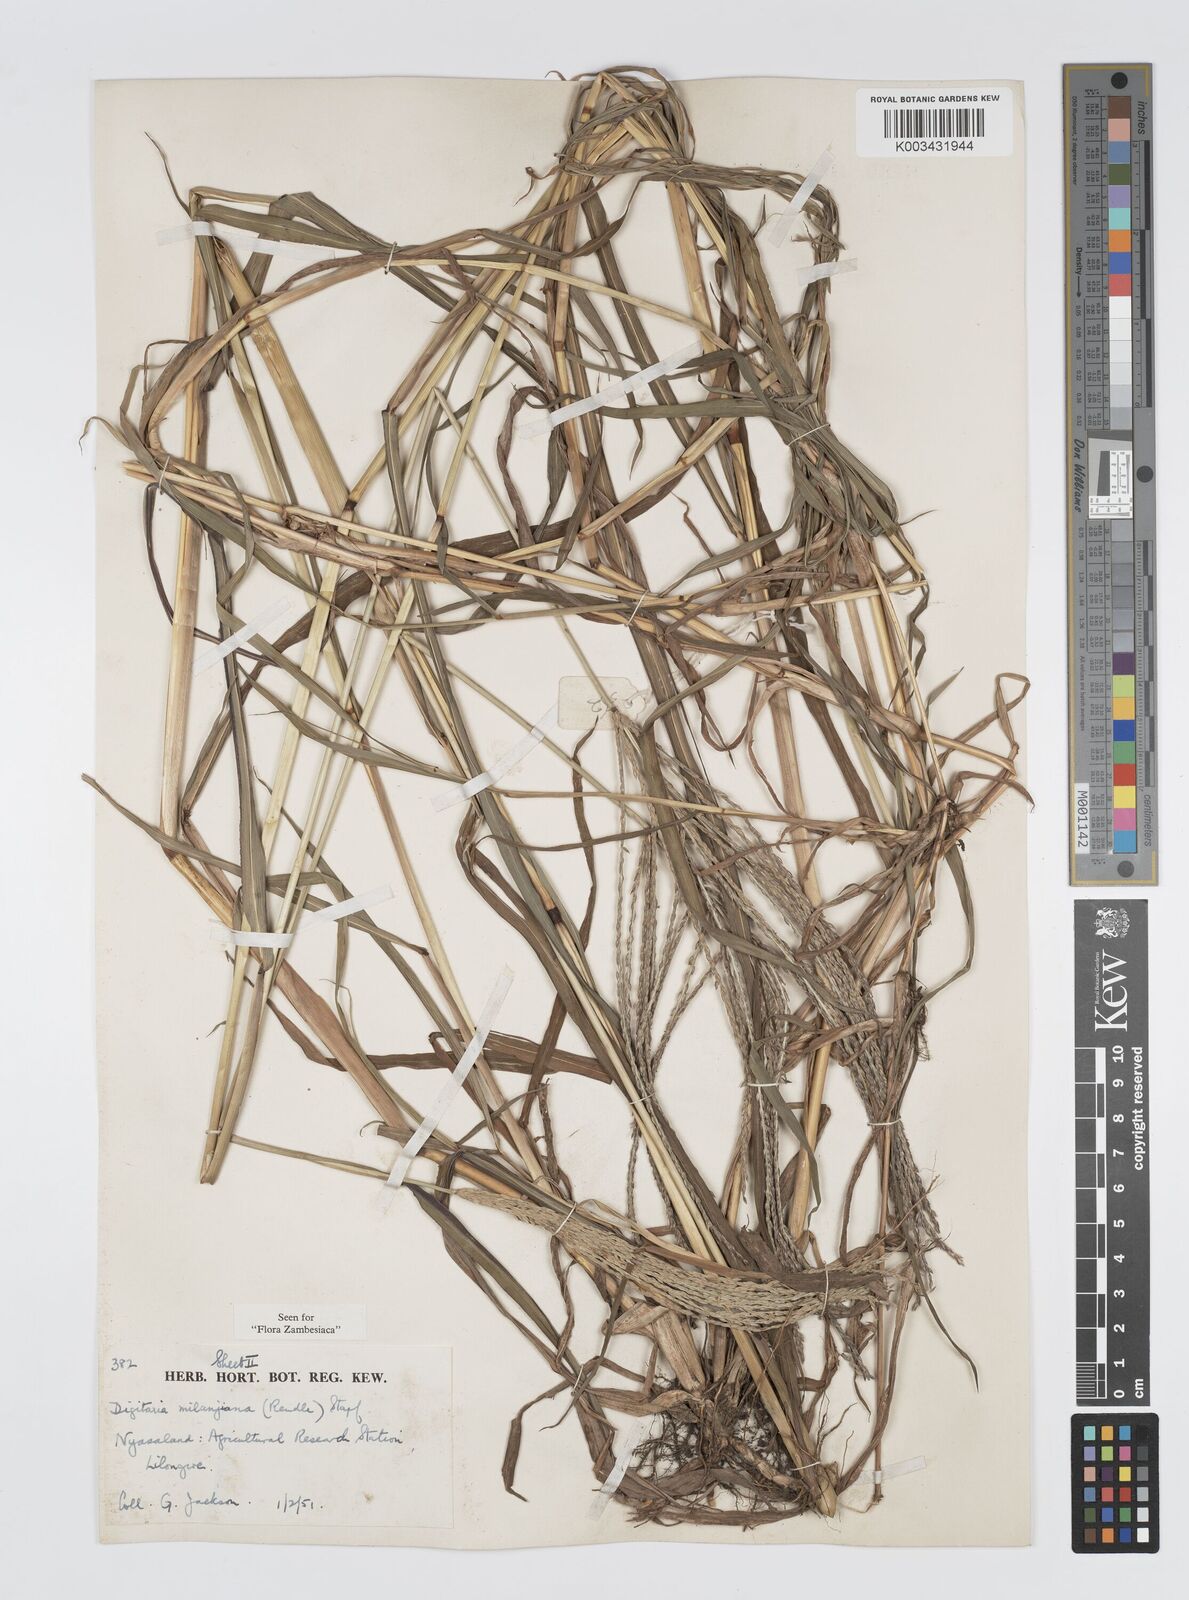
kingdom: Plantae
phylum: Tracheophyta
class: Liliopsida
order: Poales
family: Poaceae
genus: Digitaria
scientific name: Digitaria milanjiana
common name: Madagascar crabgrass
